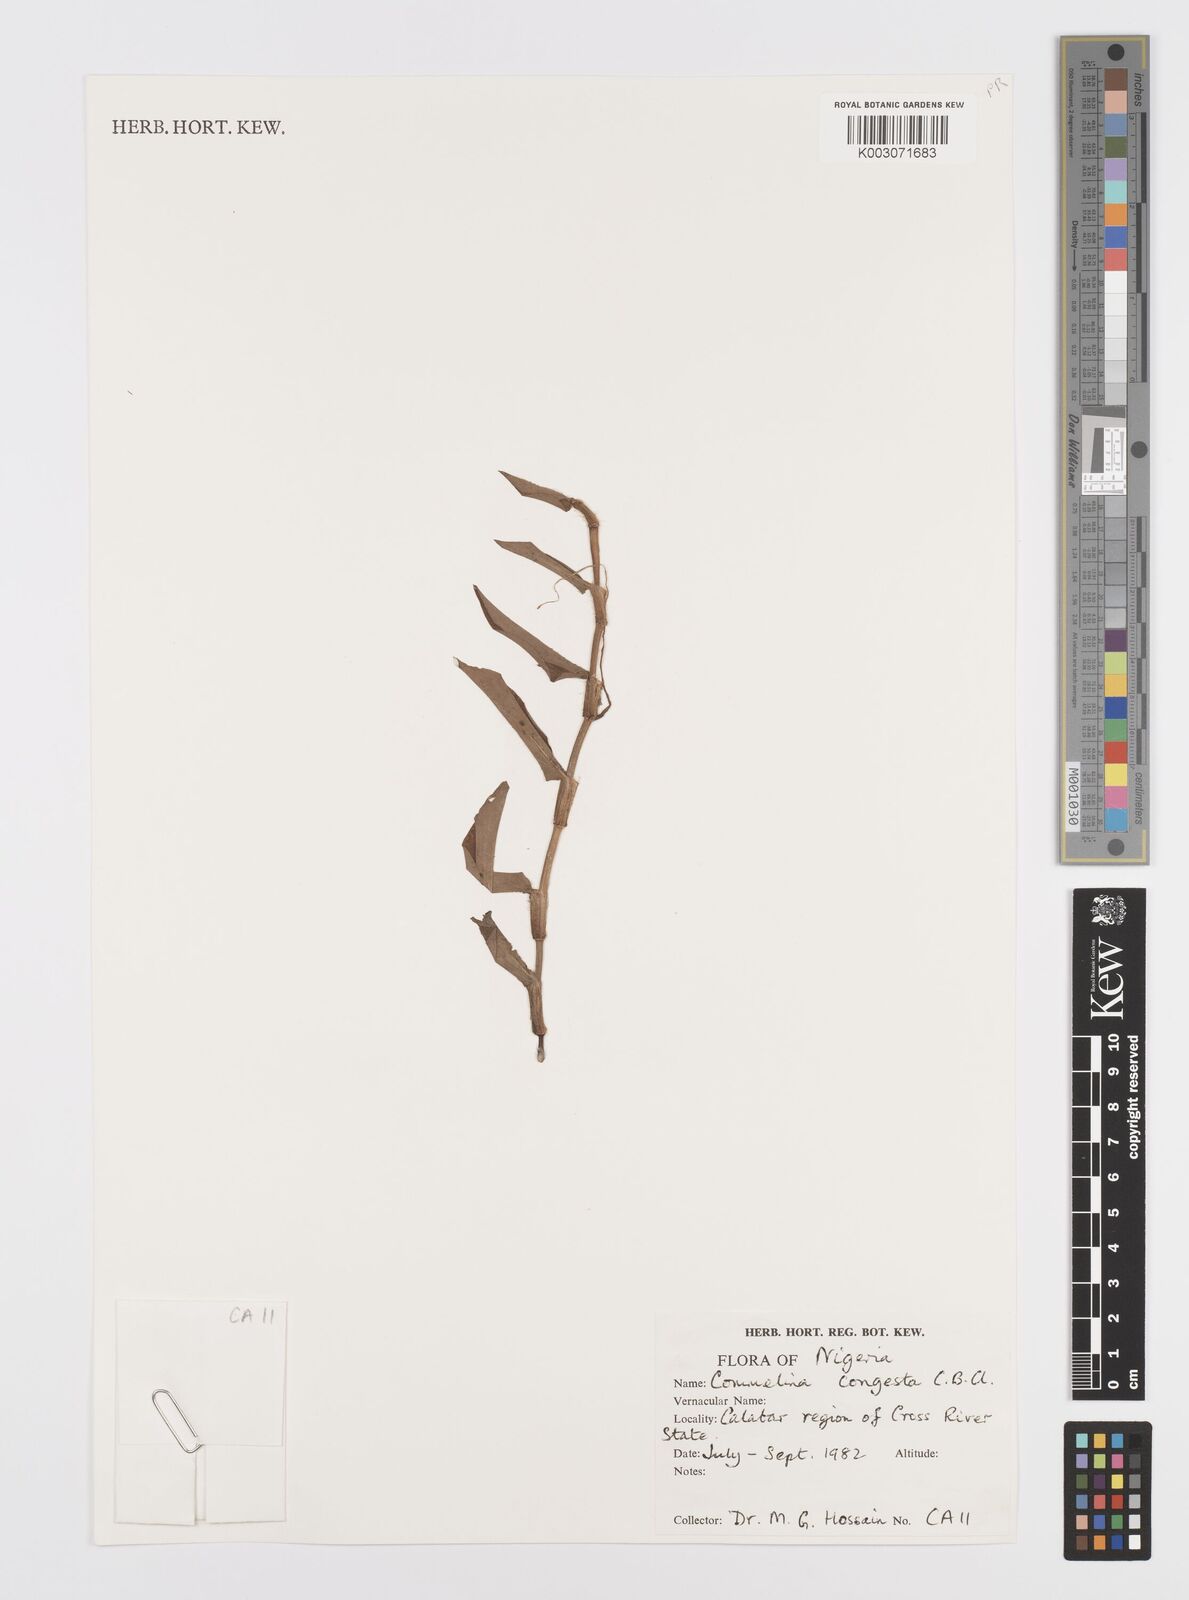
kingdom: Plantae
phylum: Tracheophyta
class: Liliopsida
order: Commelinales
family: Commelinaceae
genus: Commelina
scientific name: Commelina congesta
